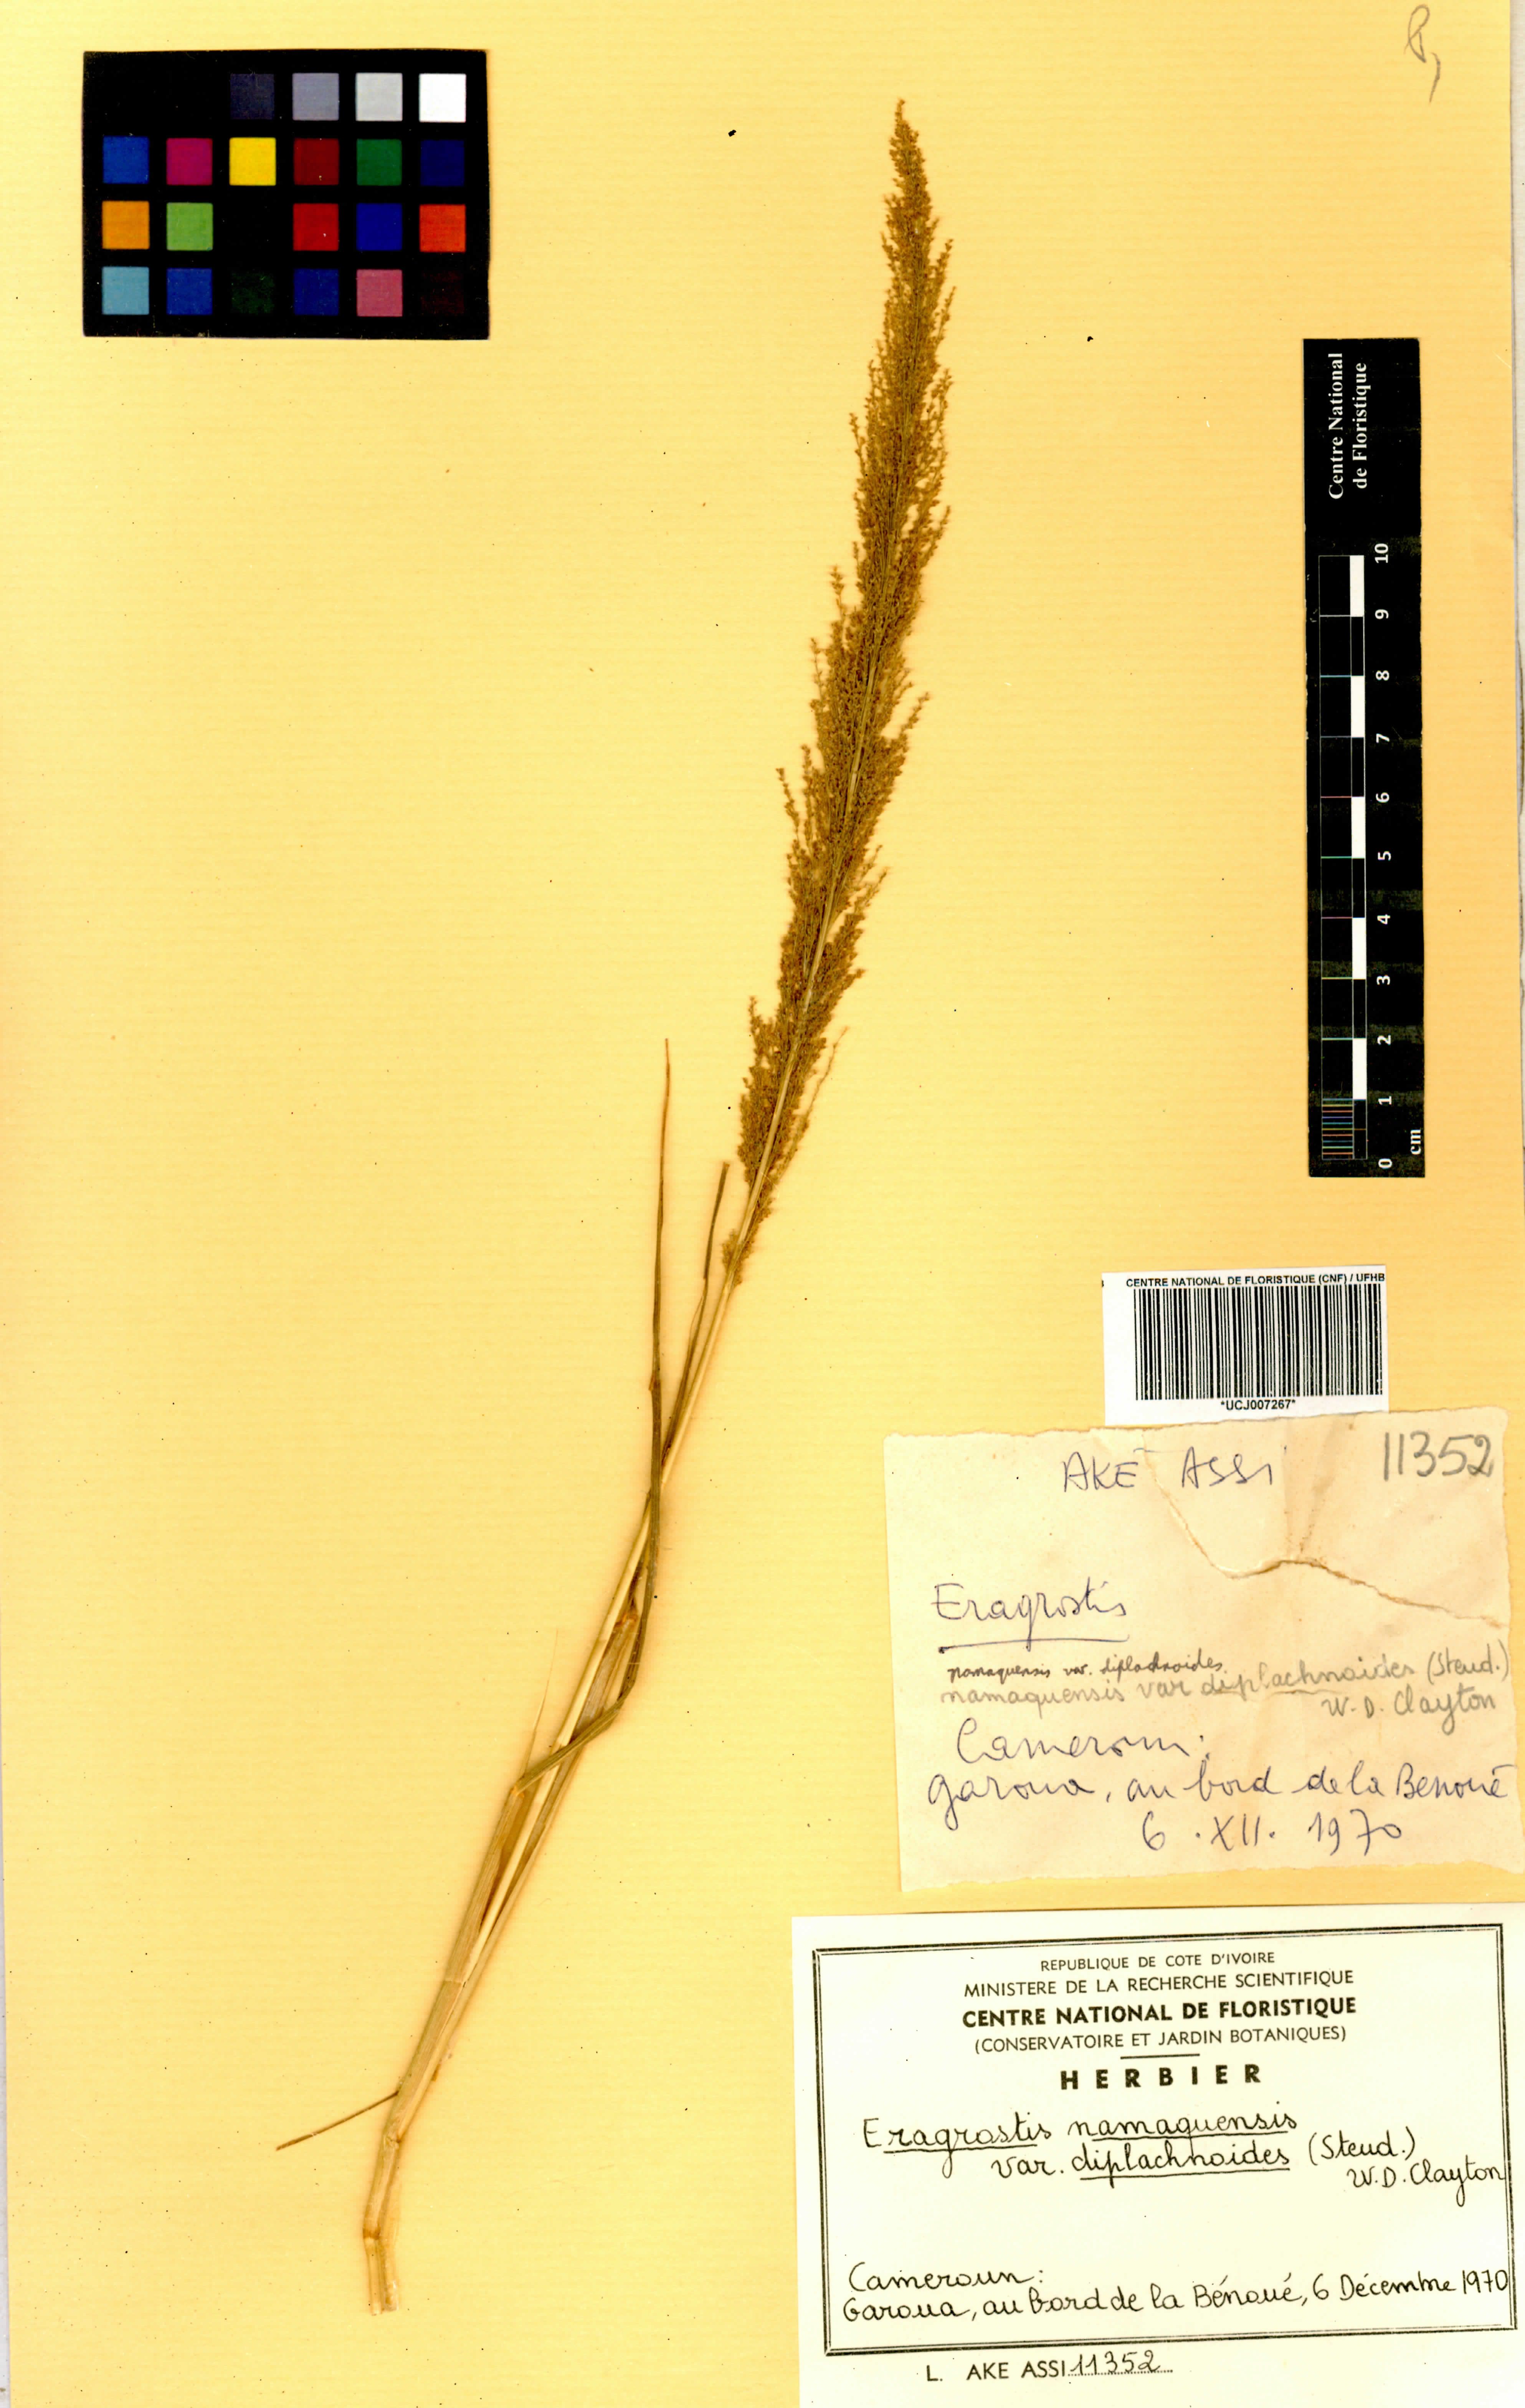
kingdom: Plantae
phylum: Tracheophyta
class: Liliopsida
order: Poales
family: Poaceae
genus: Eragrostis
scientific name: Eragrostis japonica
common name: Pond lovegrass
